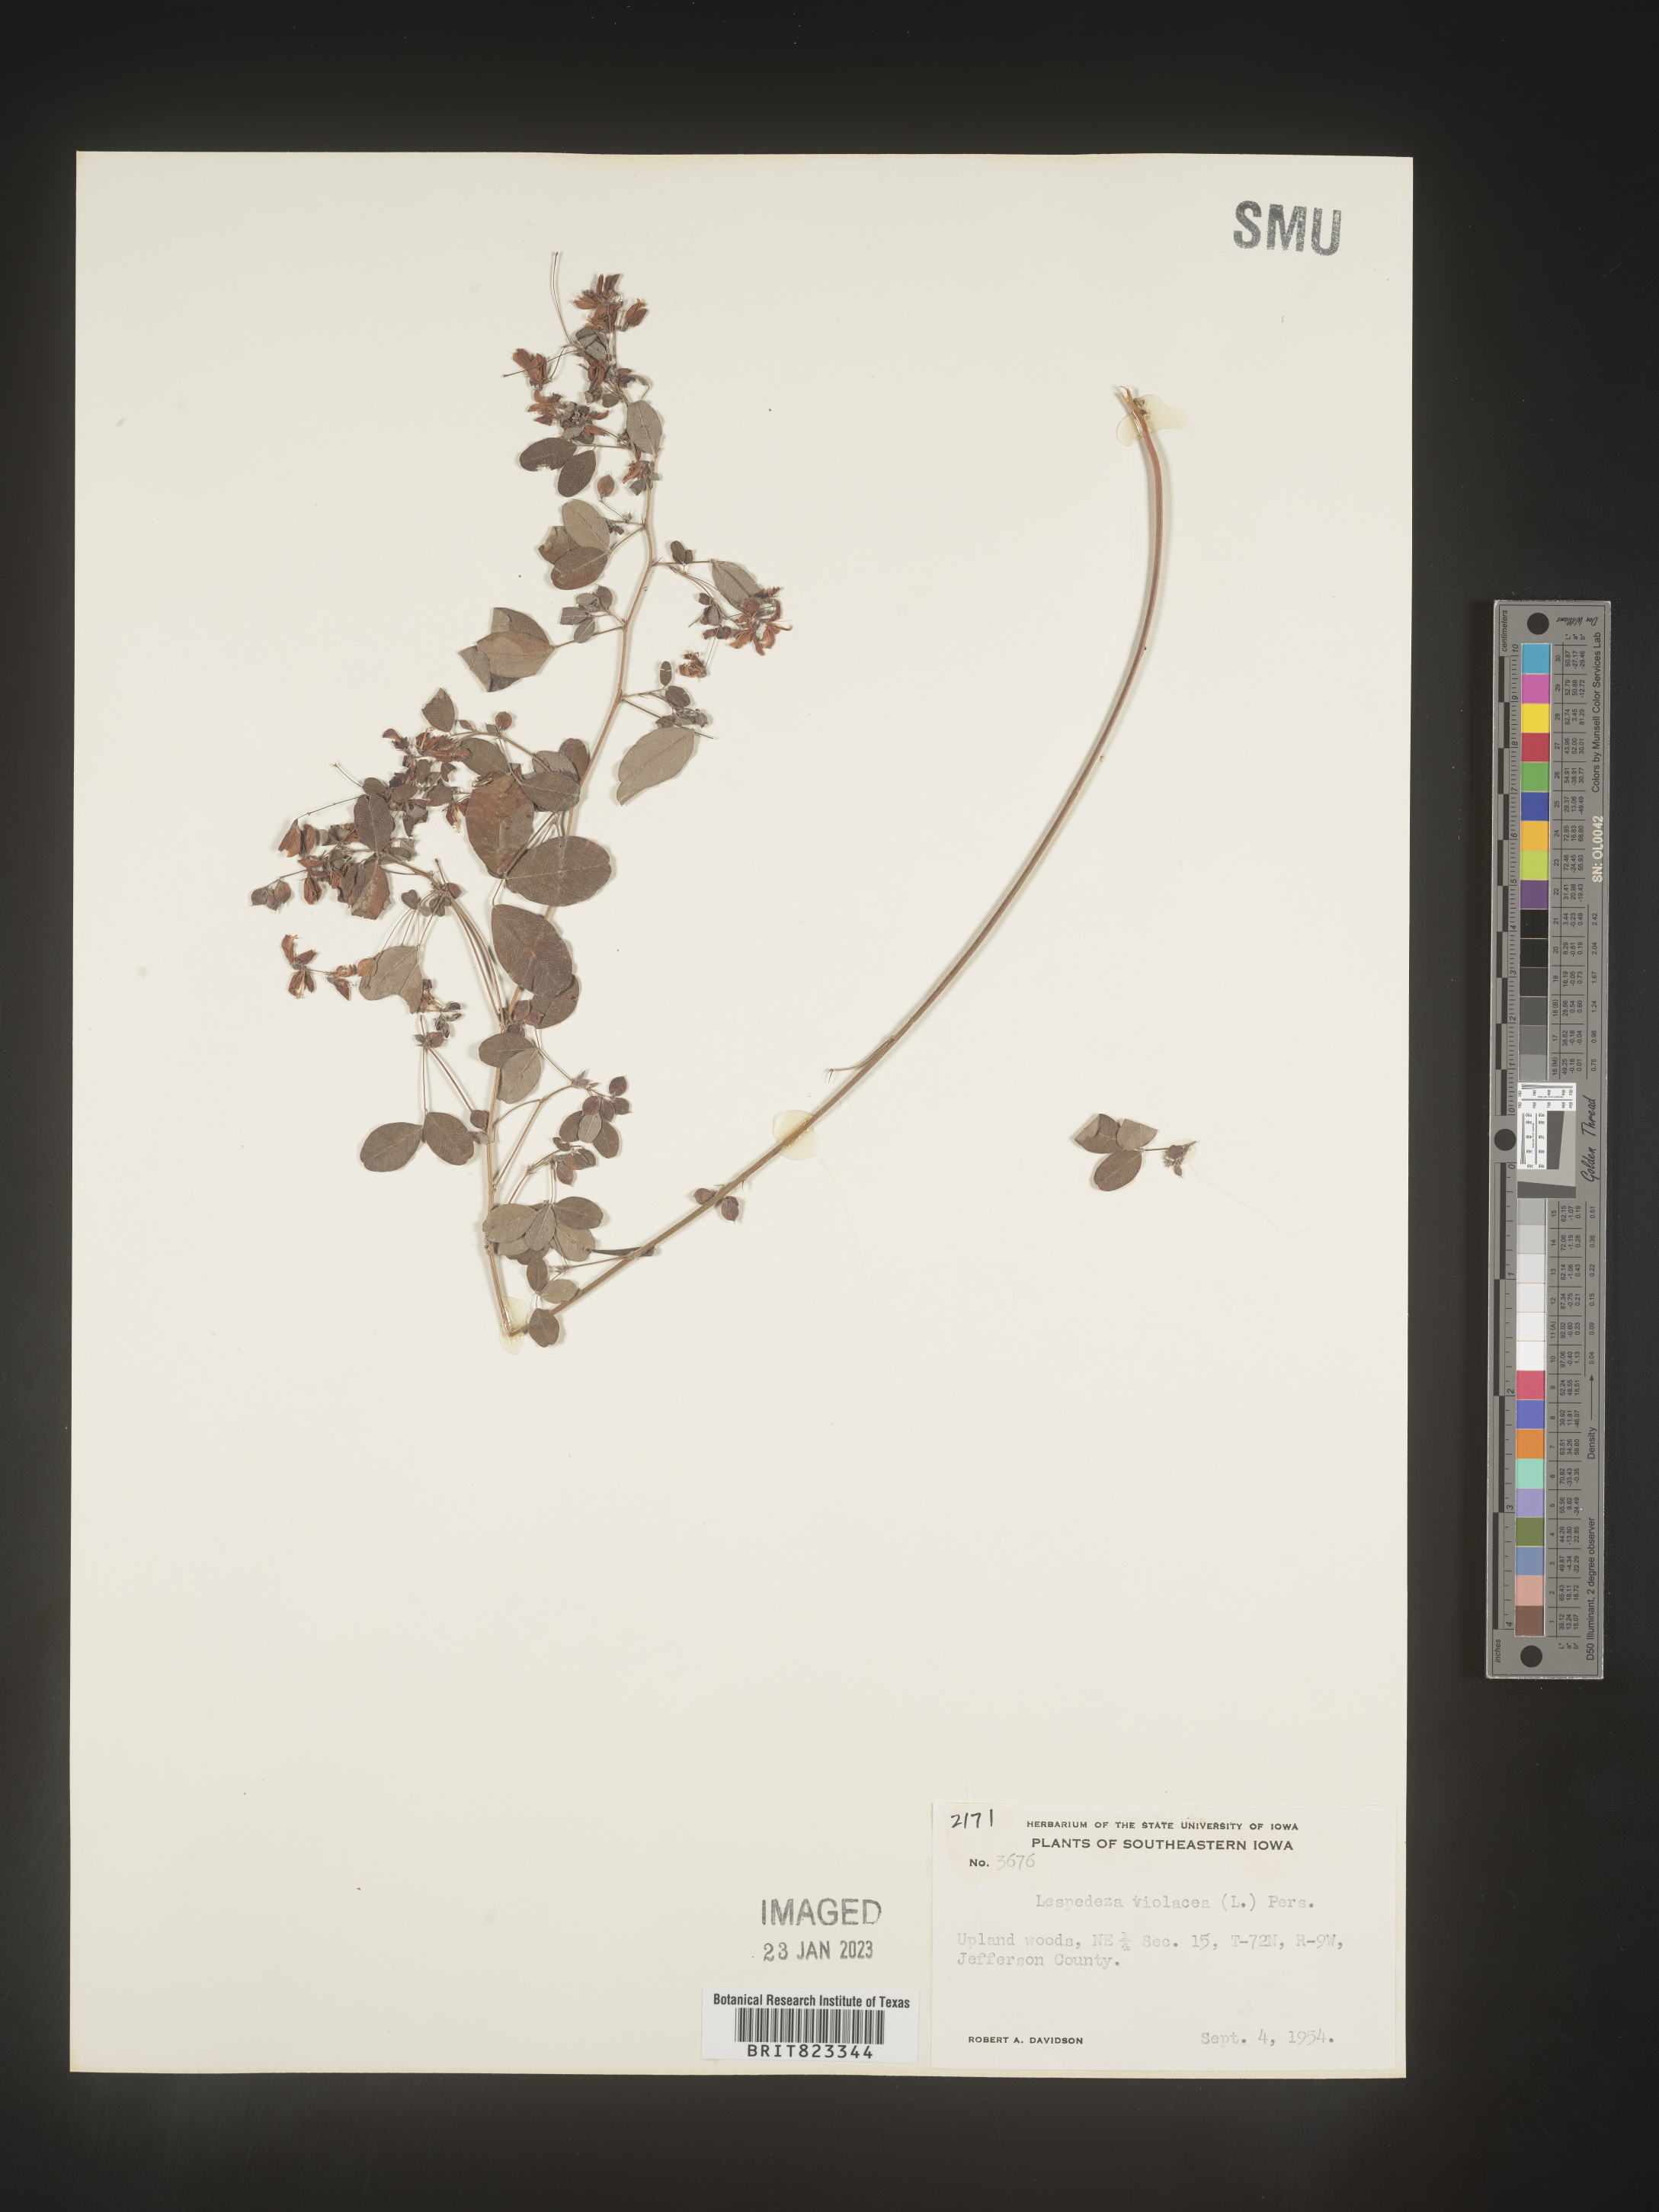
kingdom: Plantae
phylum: Tracheophyta
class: Magnoliopsida
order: Fabales
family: Fabaceae
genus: Lespedeza
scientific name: Lespedeza violacea
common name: Wand bush-clover
